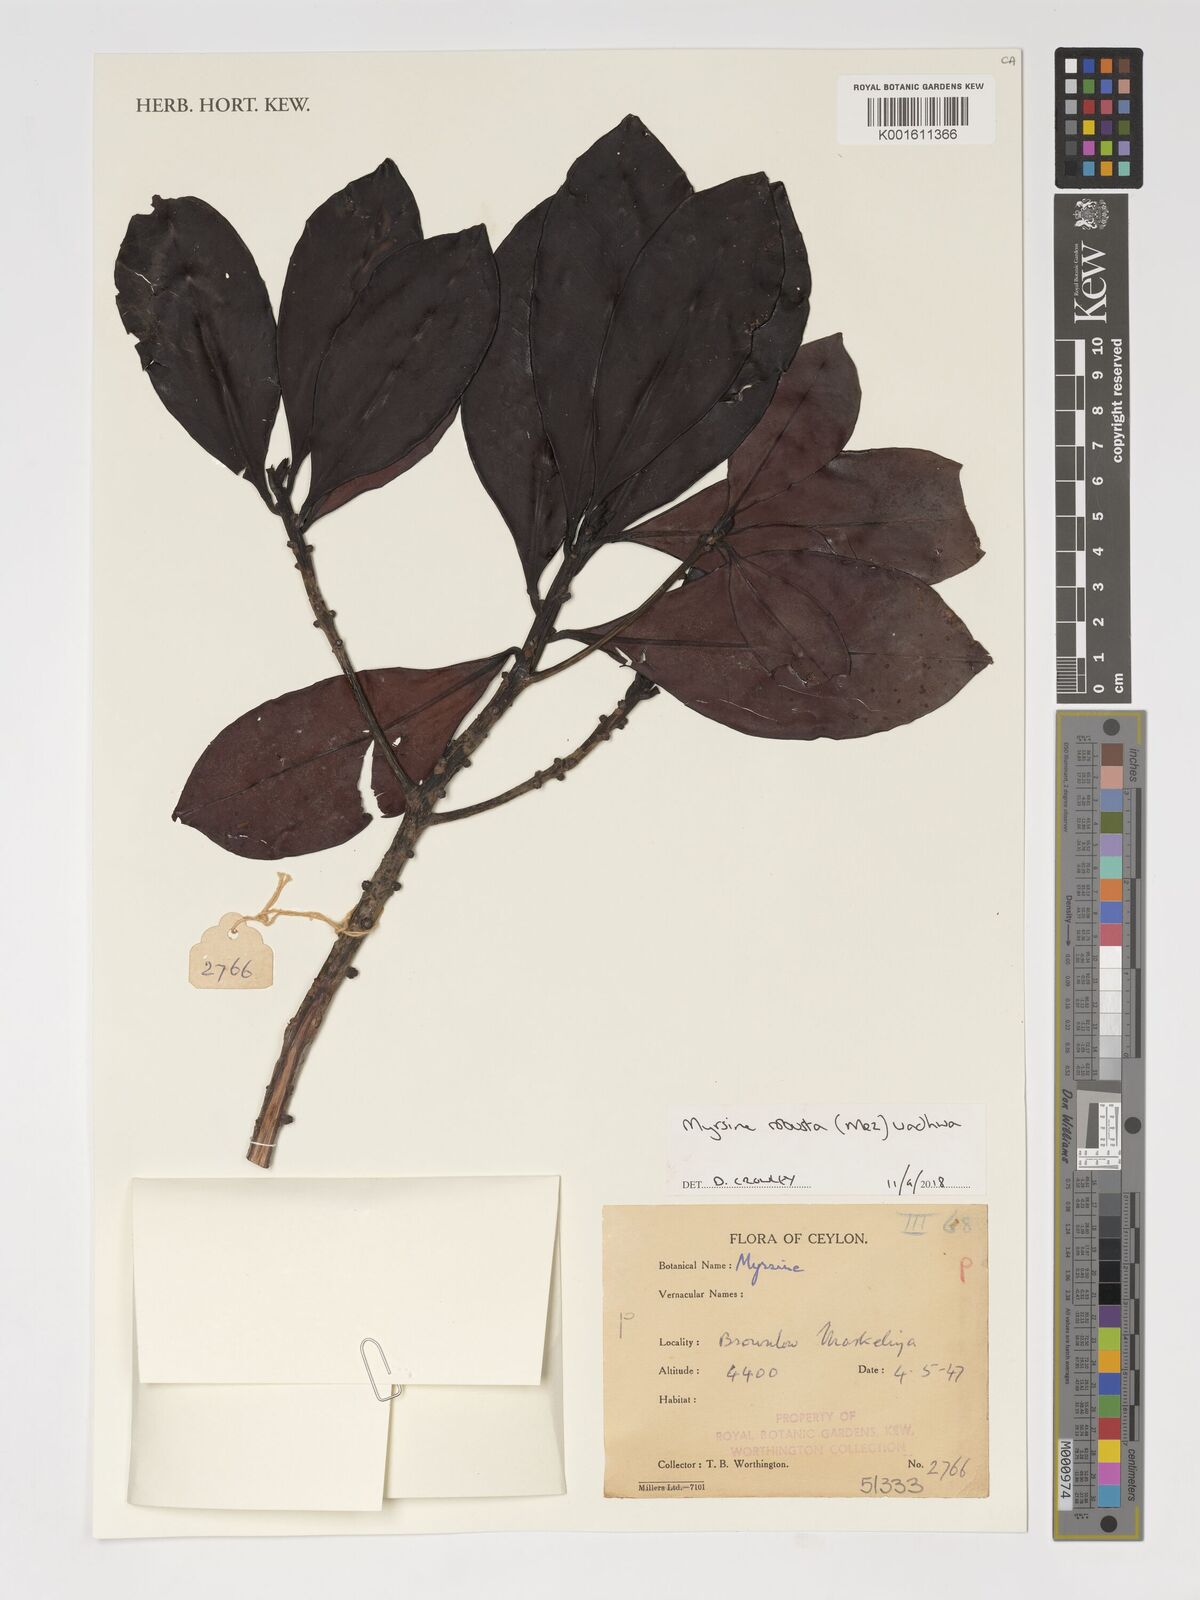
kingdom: Plantae
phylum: Tracheophyta
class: Magnoliopsida
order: Ericales
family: Primulaceae
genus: Myrsine
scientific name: Myrsine robusta
